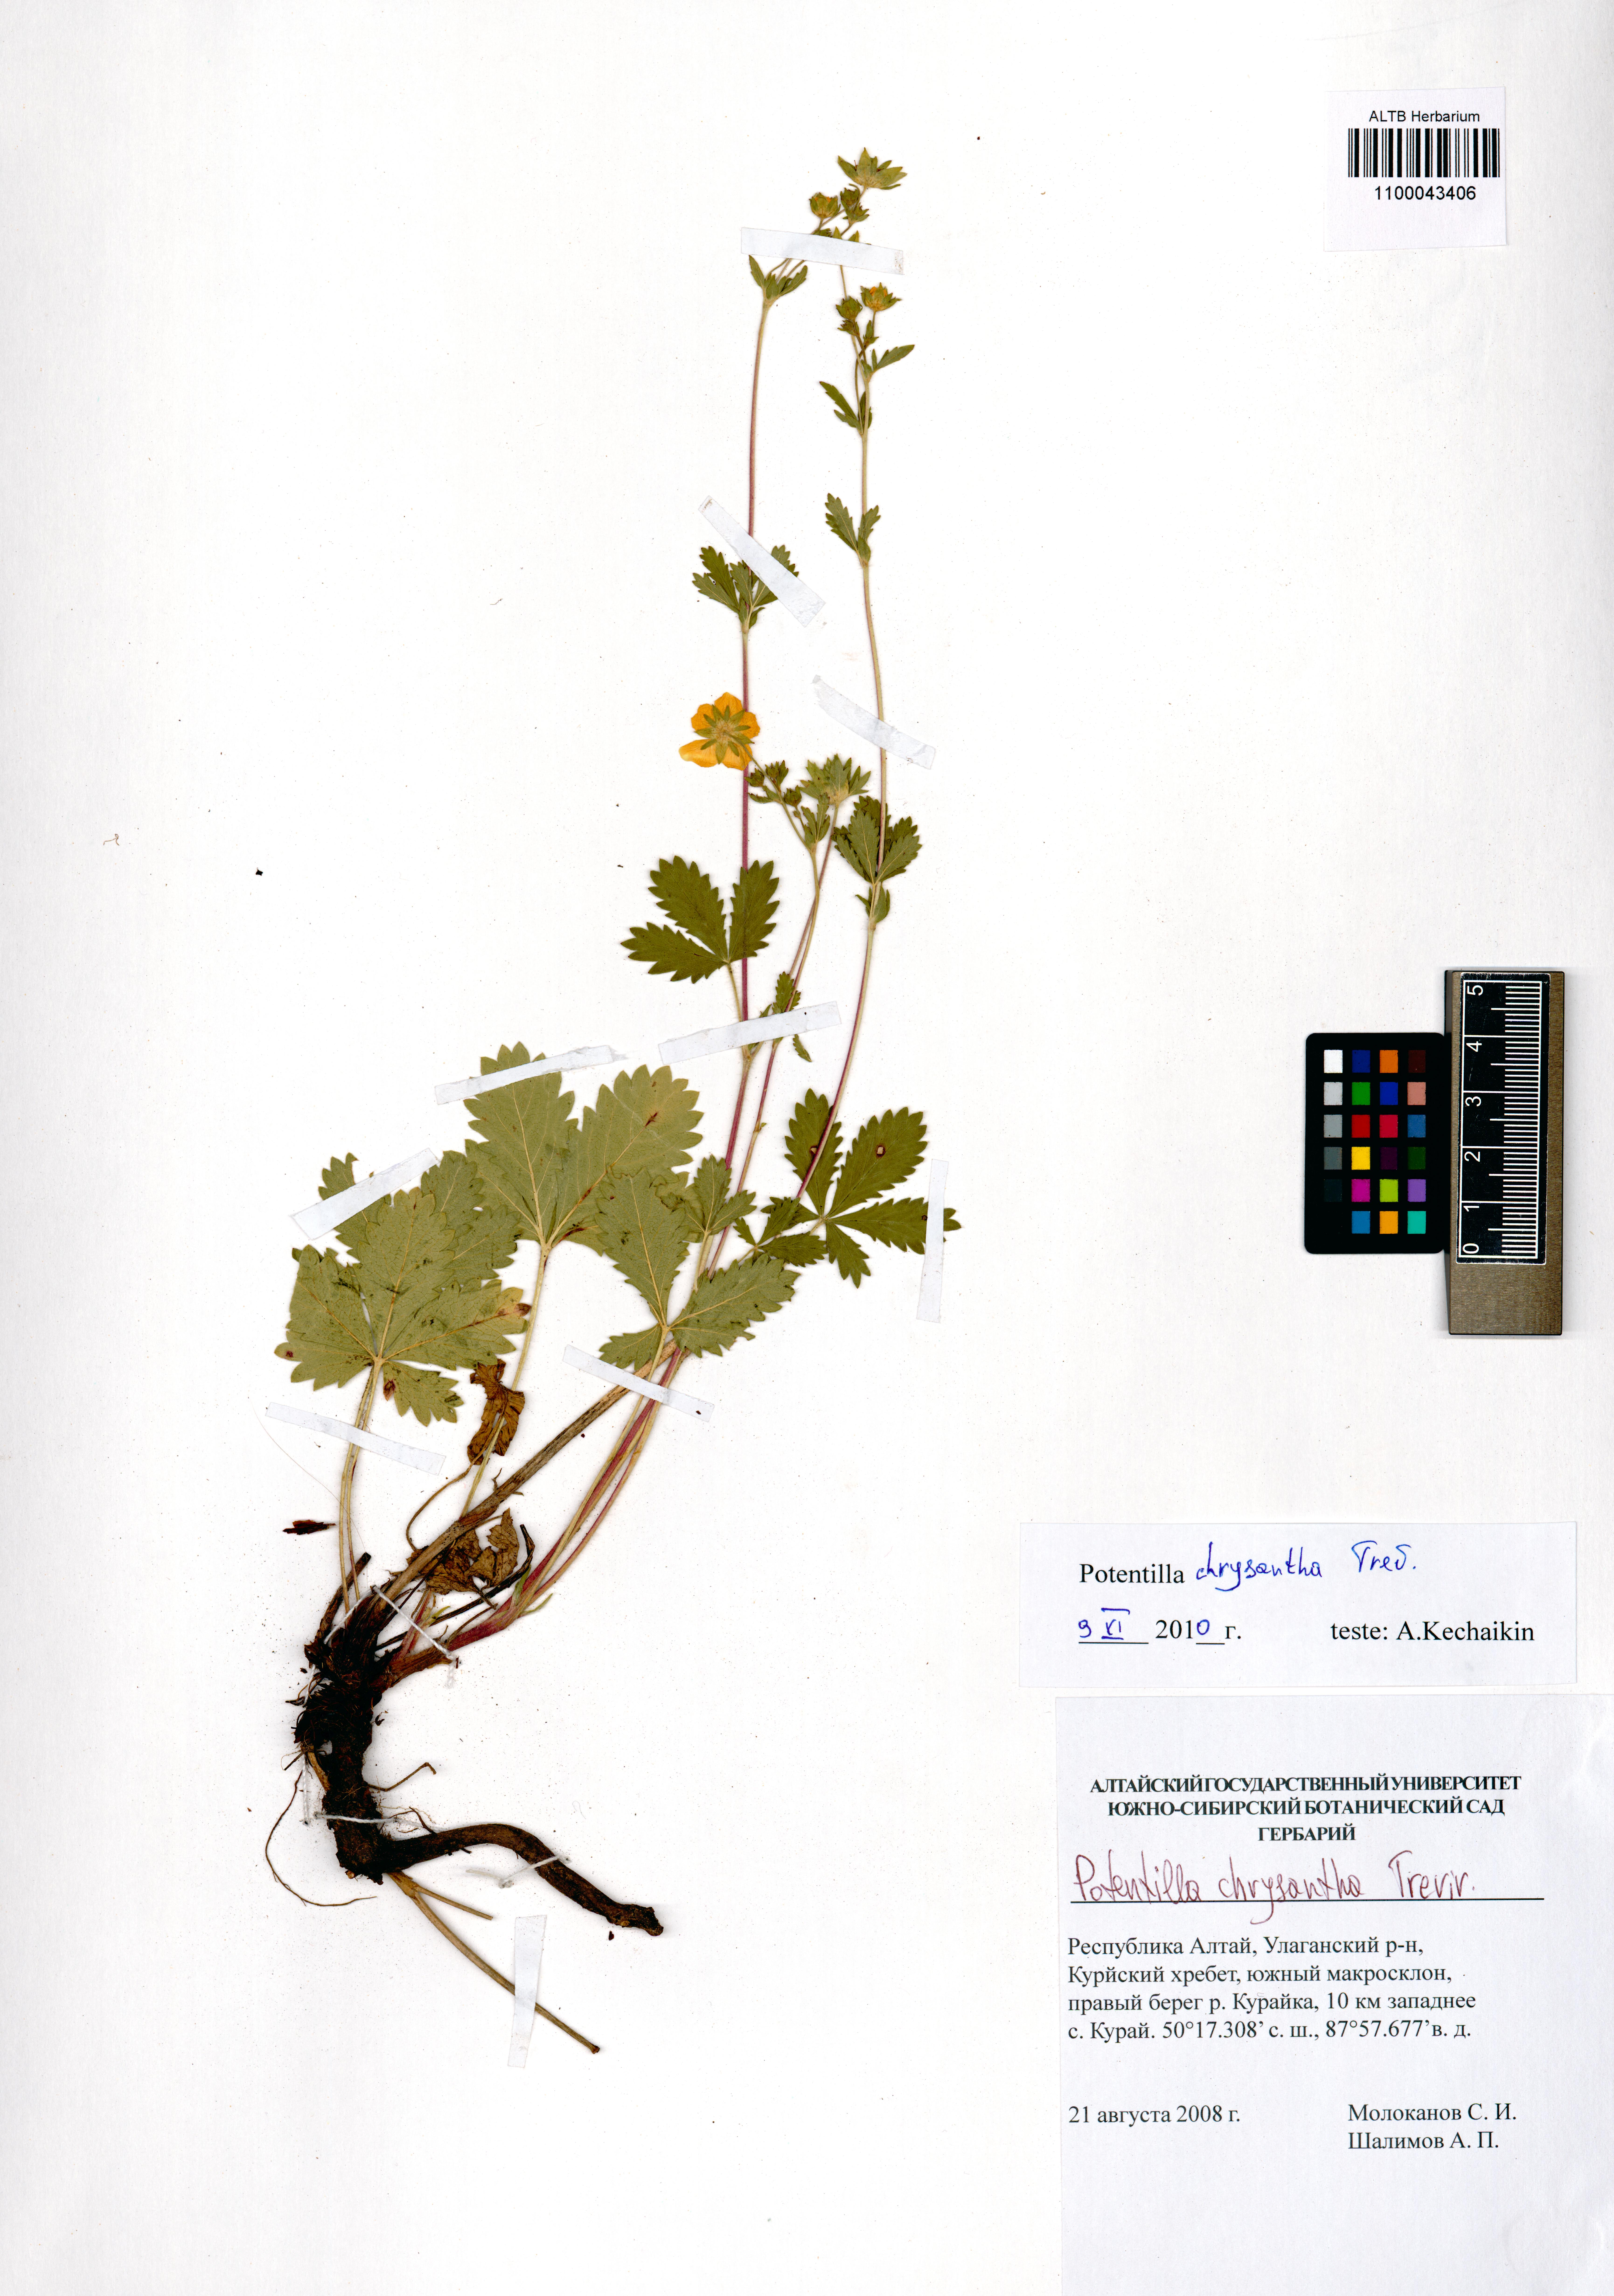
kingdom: Plantae
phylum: Tracheophyta
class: Magnoliopsida
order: Rosales
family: Rosaceae
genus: Potentilla
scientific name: Potentilla chrysantha
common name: Thuringian cinquefoil
